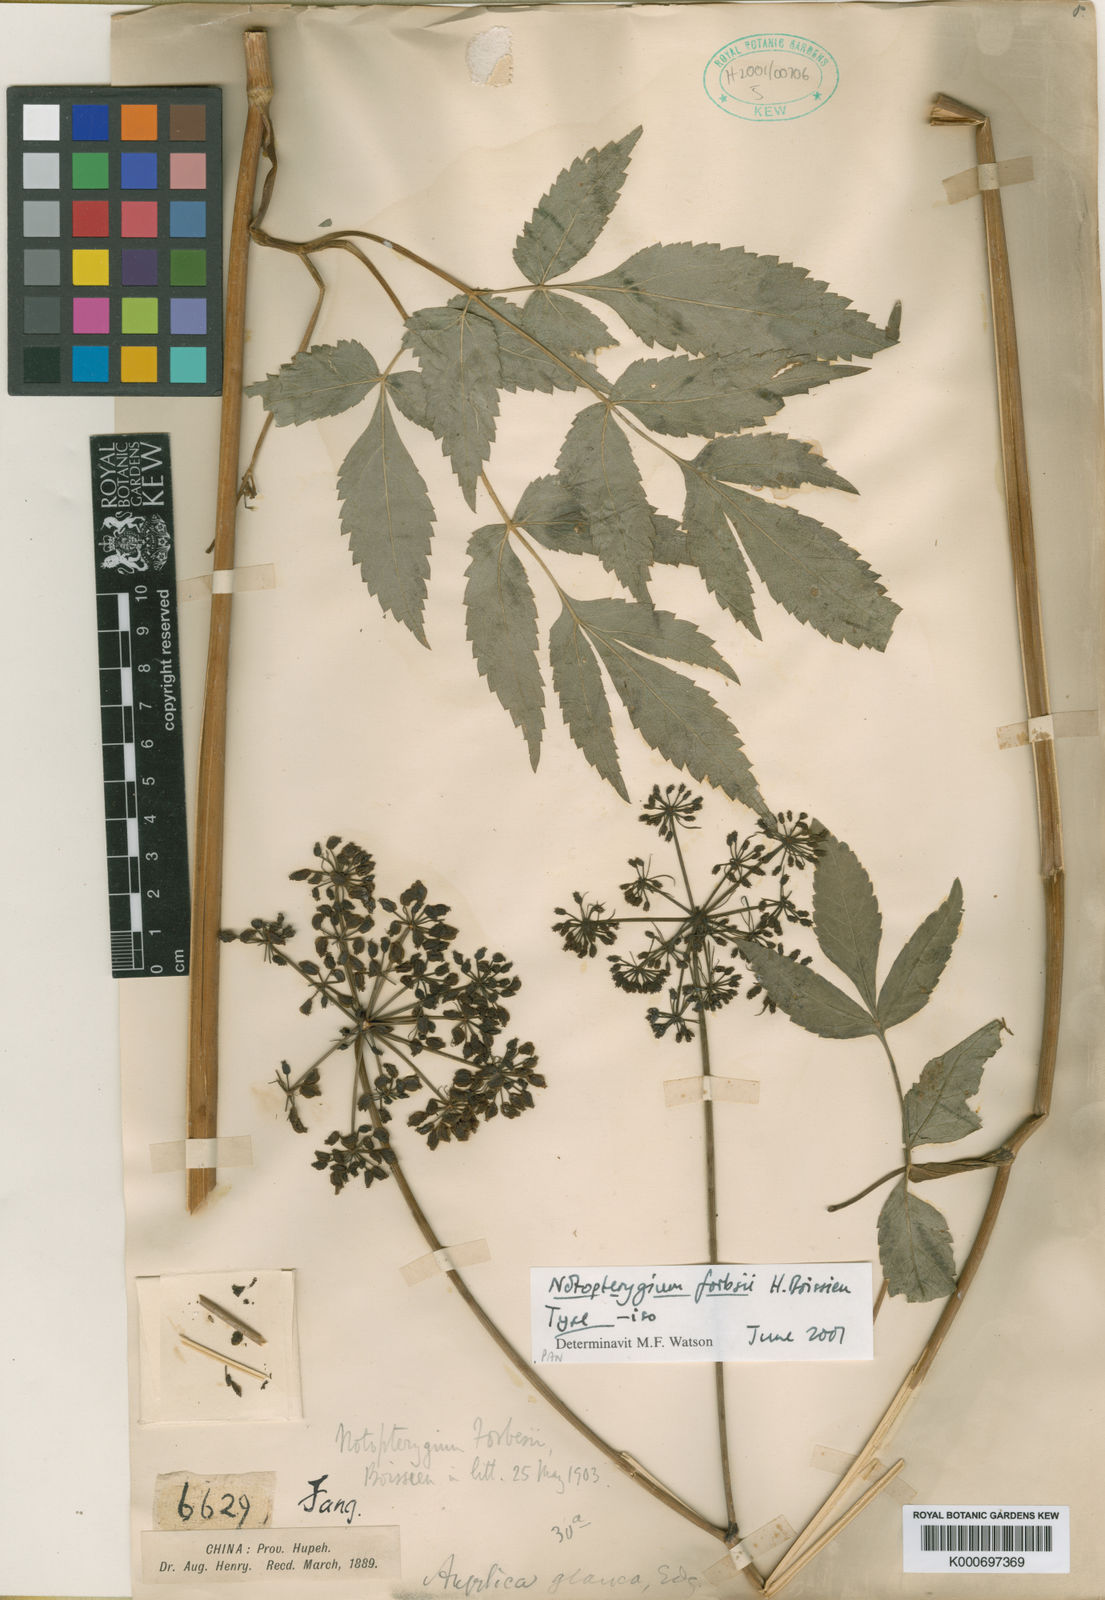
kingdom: Plantae
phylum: Tracheophyta
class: Magnoliopsida
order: Apiales
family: Apiaceae
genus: Hansenia
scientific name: Hansenia forbesii
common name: Notopterygium
